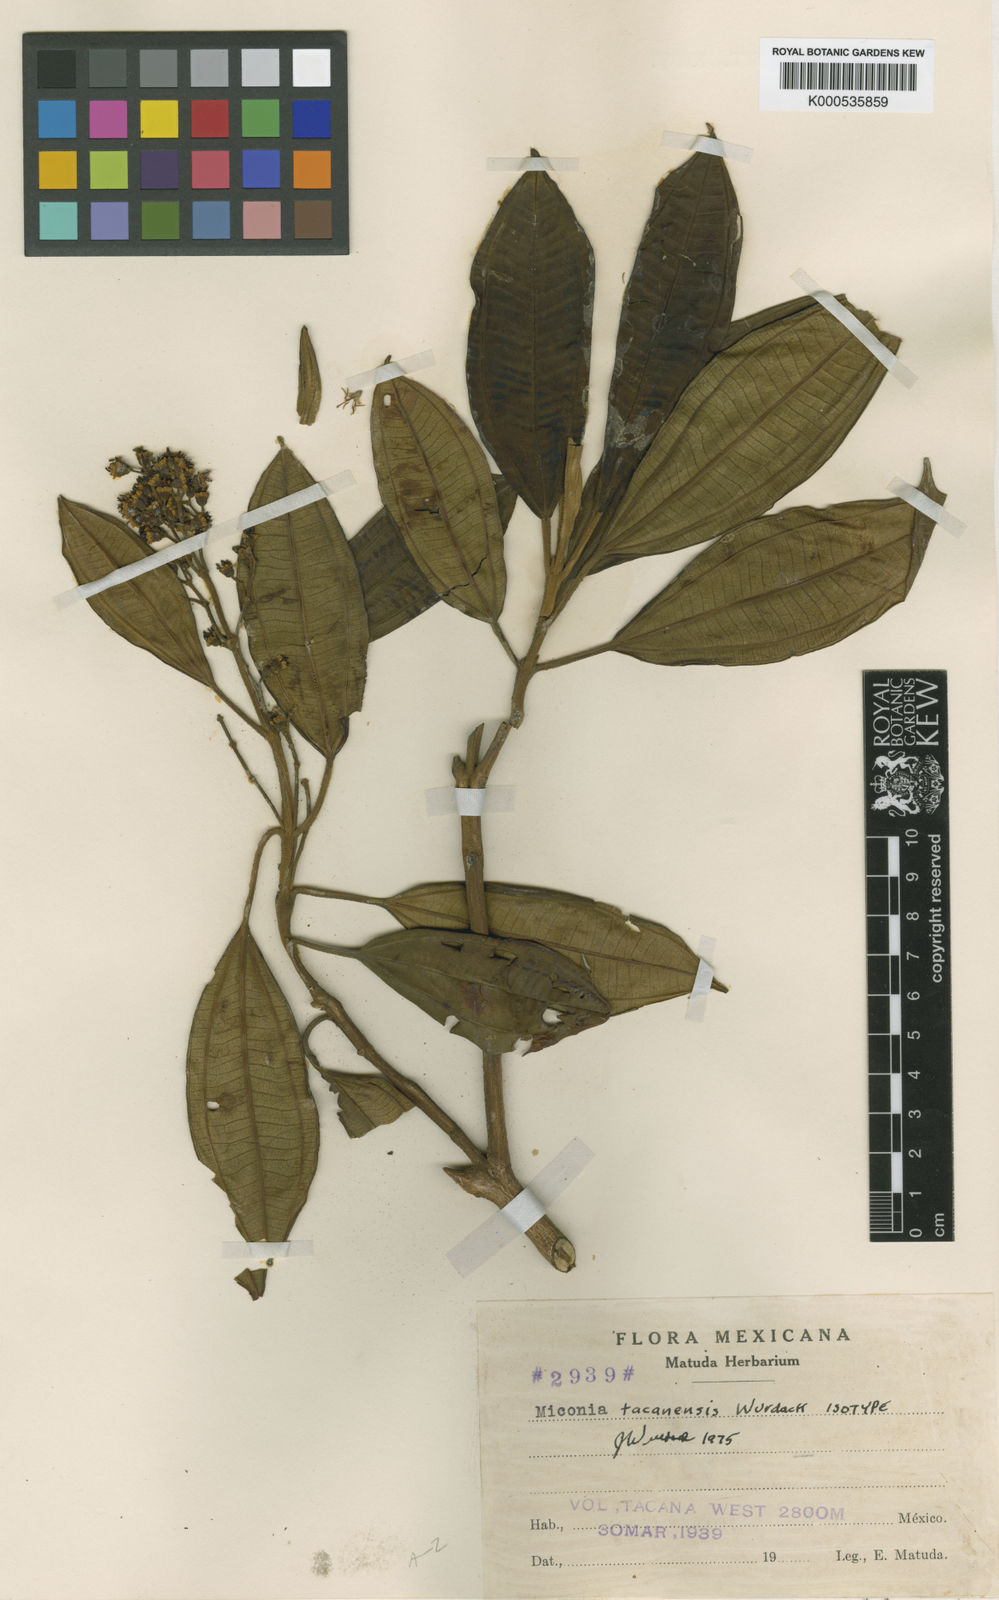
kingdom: Plantae
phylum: Tracheophyta
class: Magnoliopsida
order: Myrtales
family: Melastomataceae
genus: Miconia
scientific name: Miconia tacanensis
